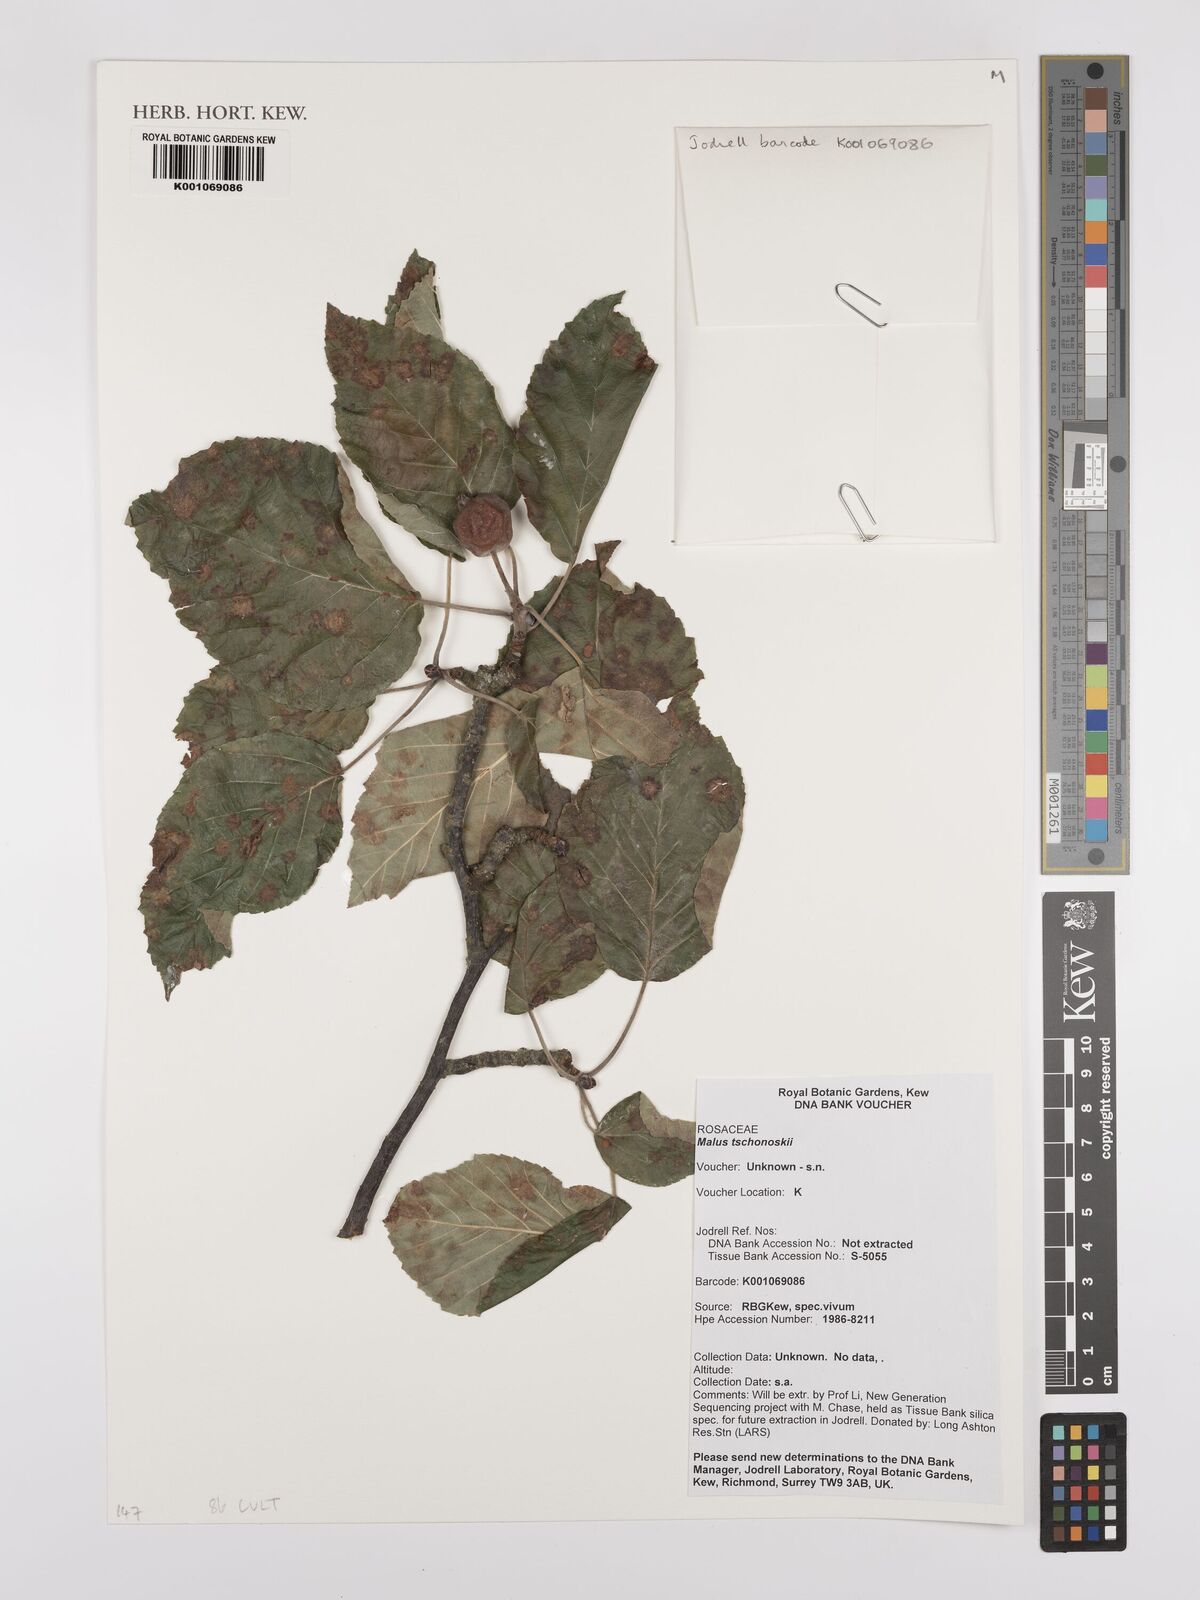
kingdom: Plantae
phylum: Tracheophyta
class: Magnoliopsida
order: Rosales
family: Rosaceae
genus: Malus
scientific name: Malus tschonoskii
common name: Pillar apple
